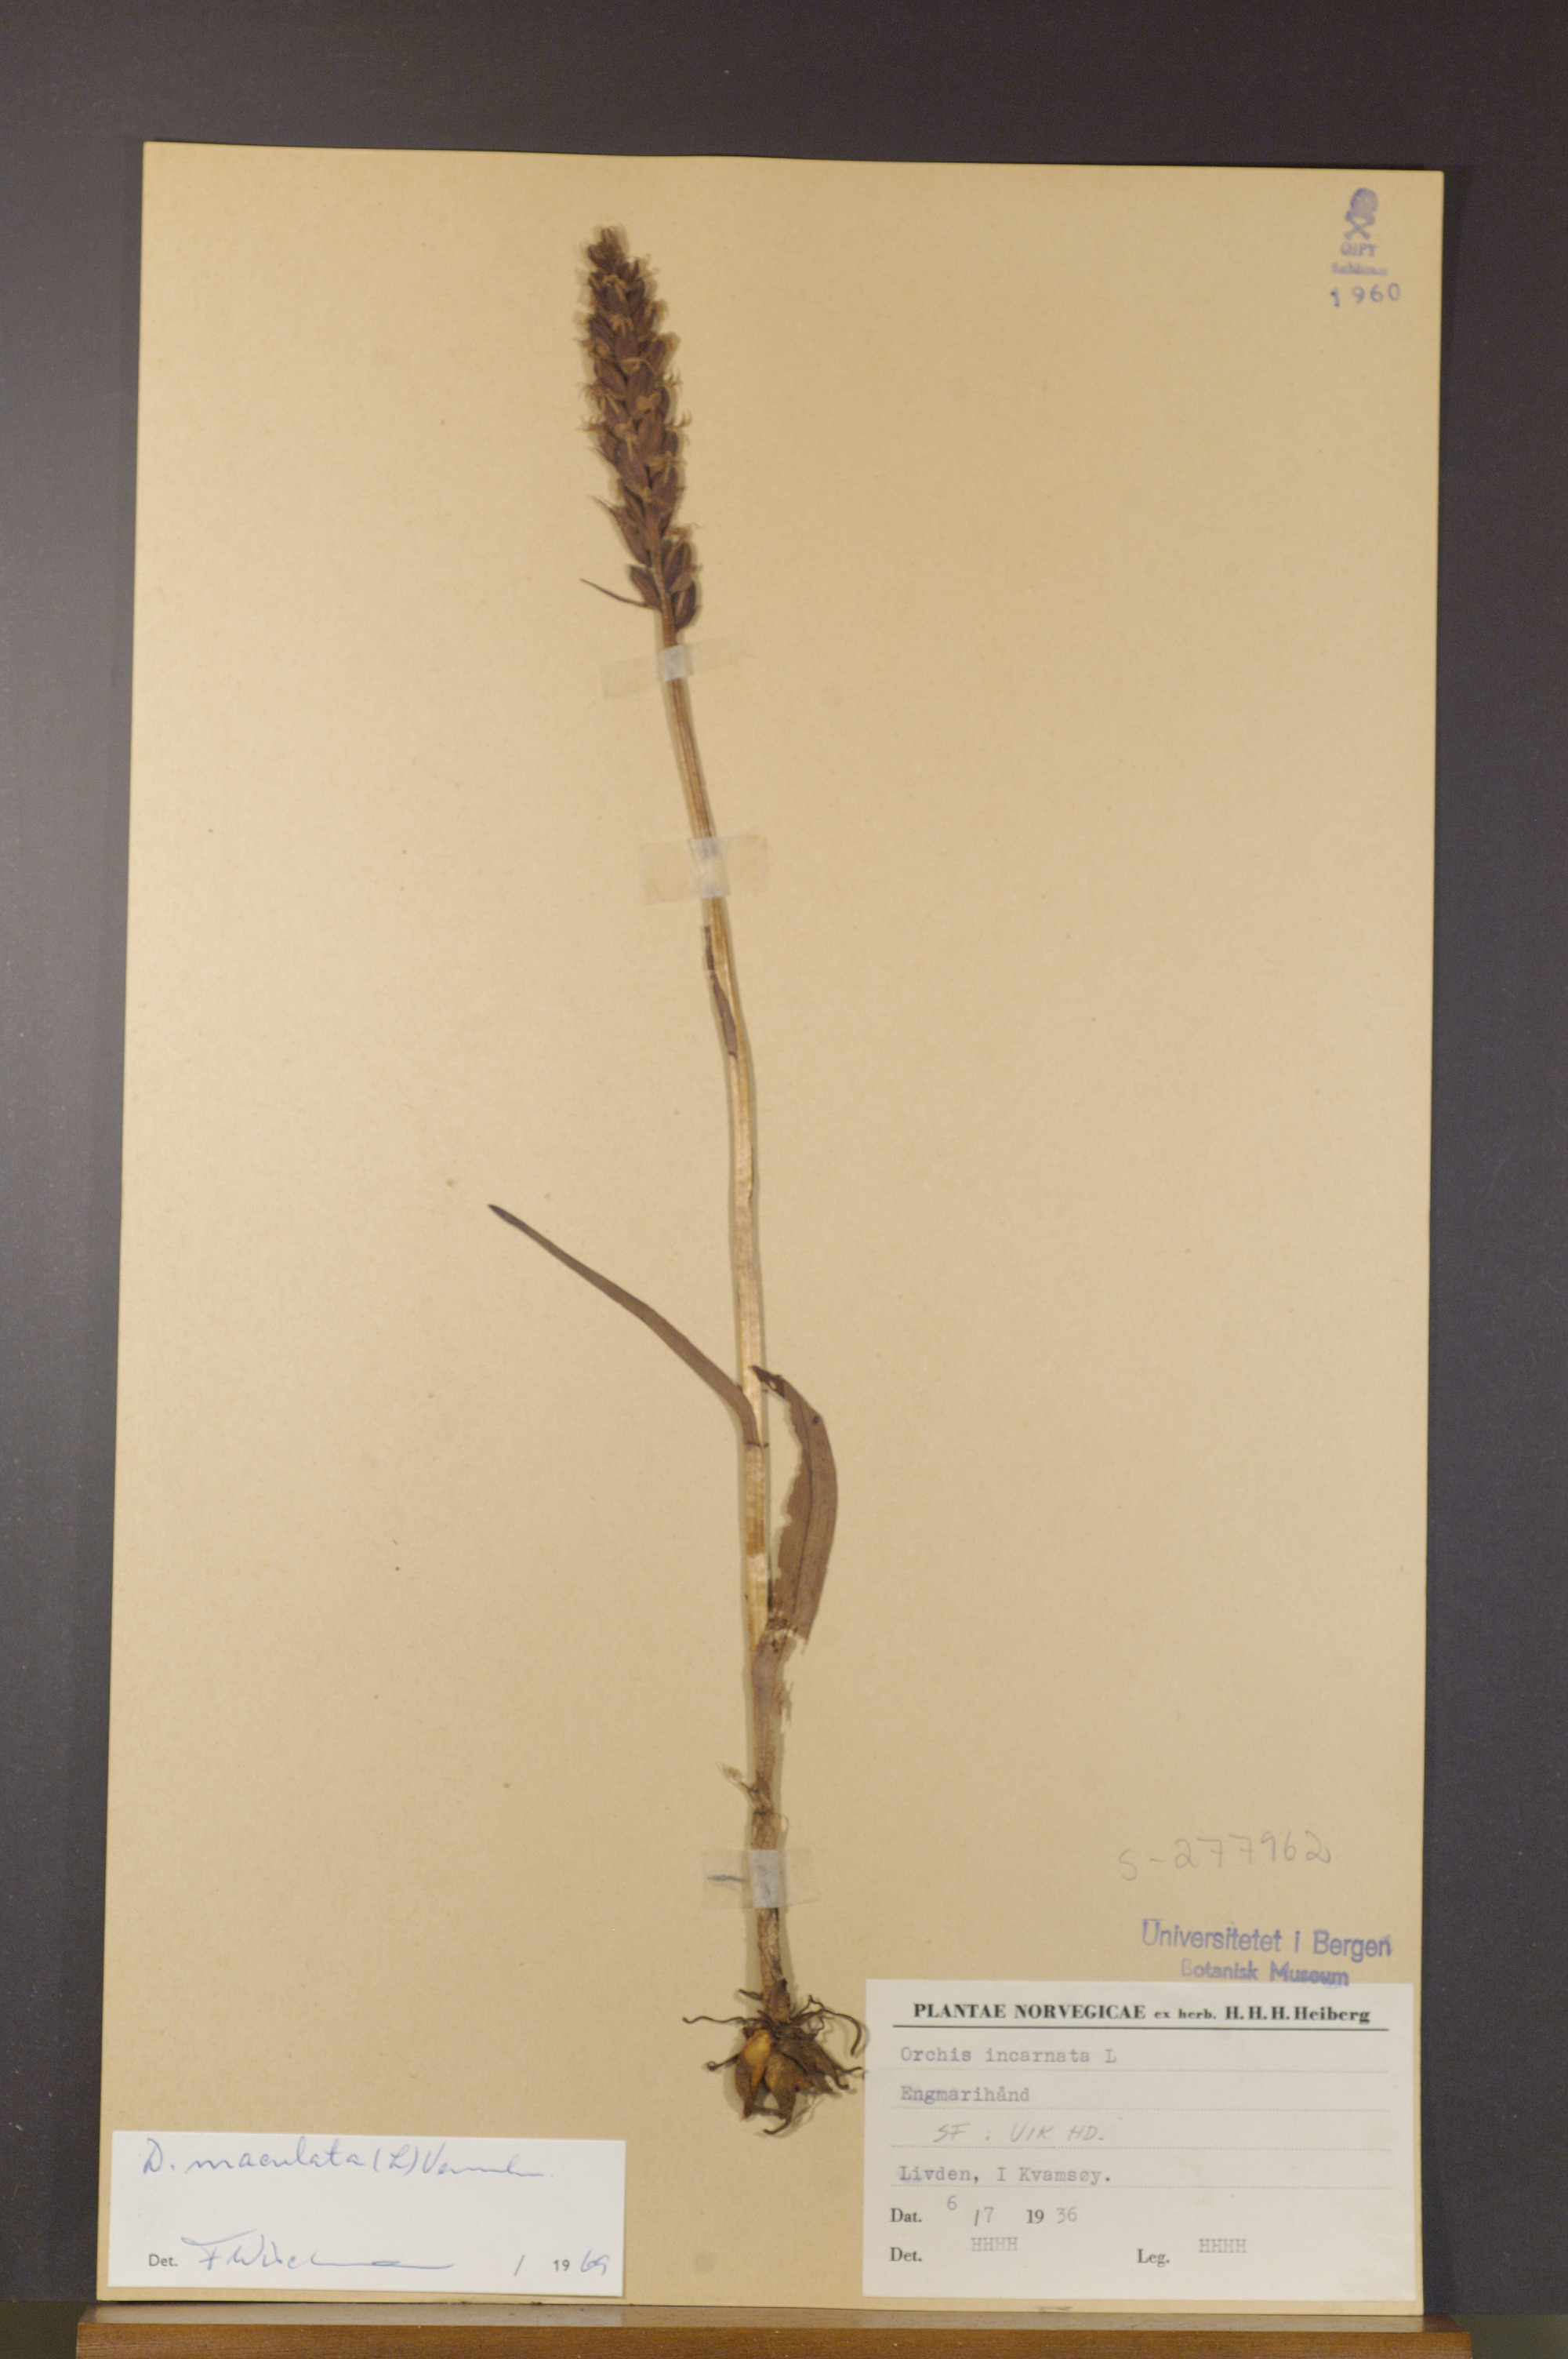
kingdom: Plantae
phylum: Tracheophyta
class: Liliopsida
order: Asparagales
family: Orchidaceae
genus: Dactylorhiza
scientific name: Dactylorhiza maculata
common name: Heath spotted-orchid
